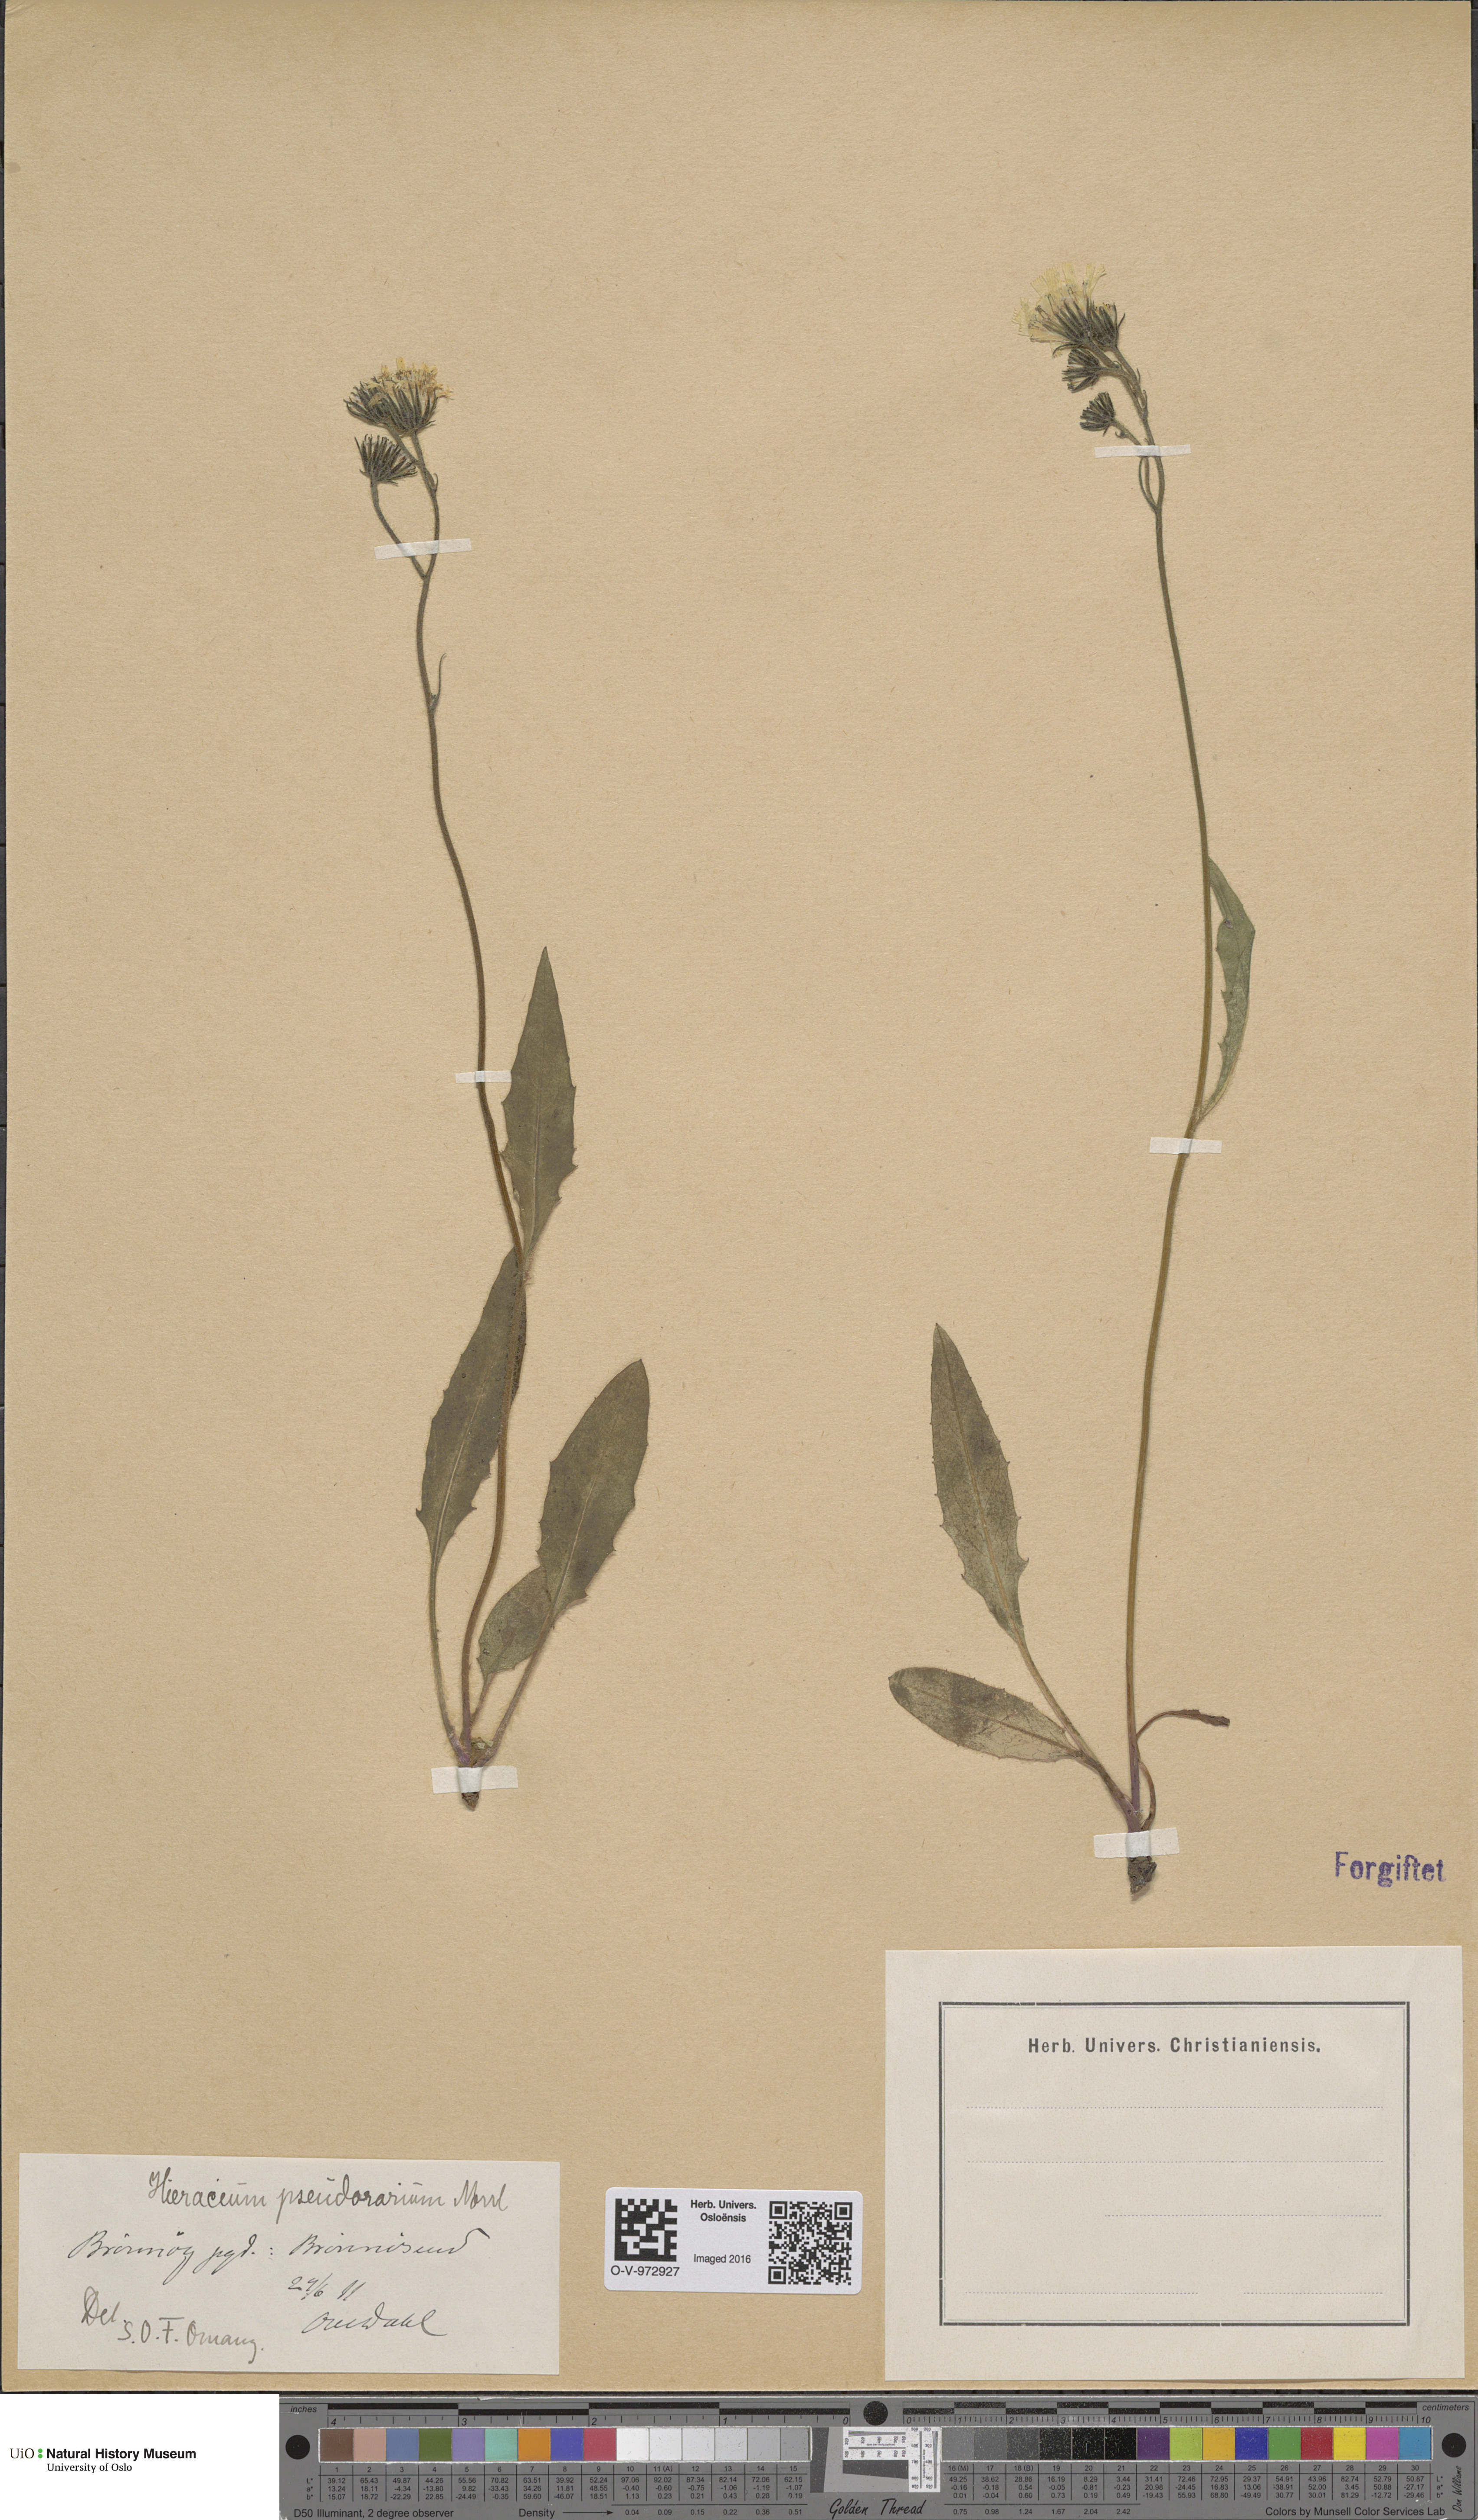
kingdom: Plantae
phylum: Tracheophyta
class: Magnoliopsida
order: Asterales
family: Asteraceae
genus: Hieracium
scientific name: Hieracium
